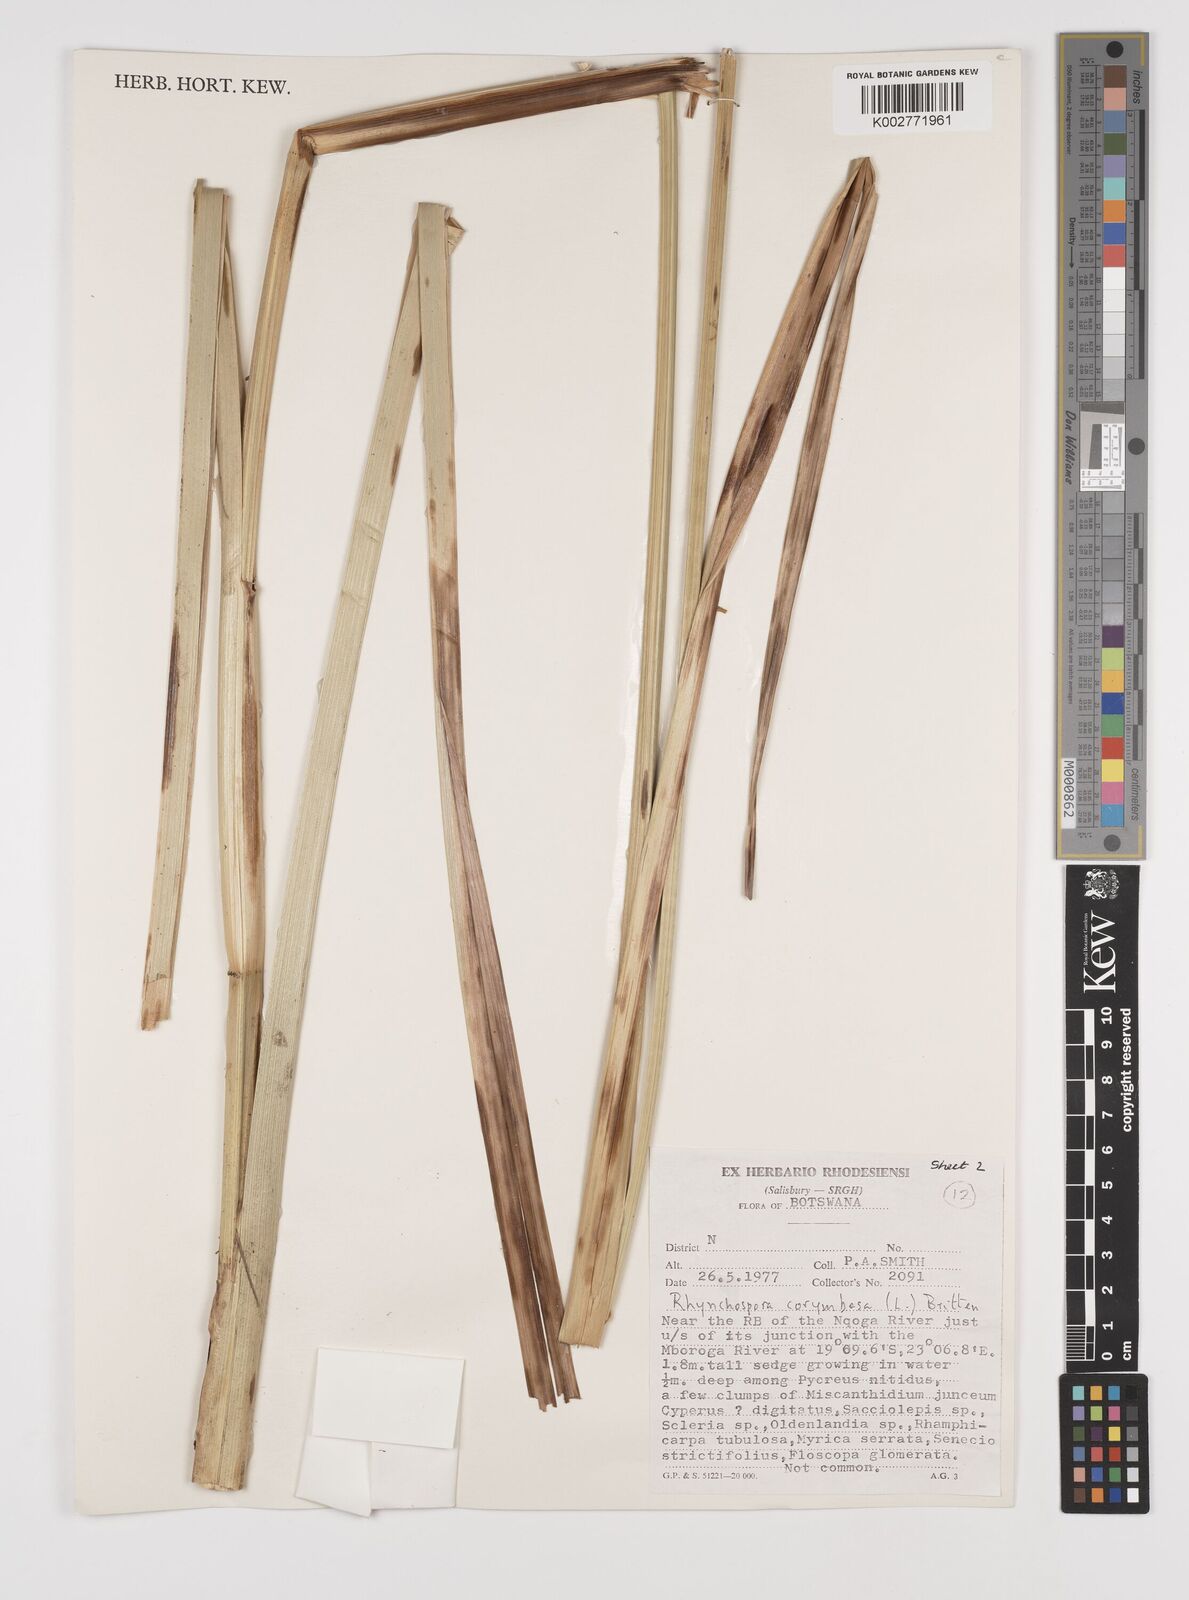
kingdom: Plantae
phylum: Tracheophyta
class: Liliopsida
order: Poales
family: Cyperaceae
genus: Rhynchospora
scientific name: Rhynchospora corymbosa
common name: Golden beak sedge
